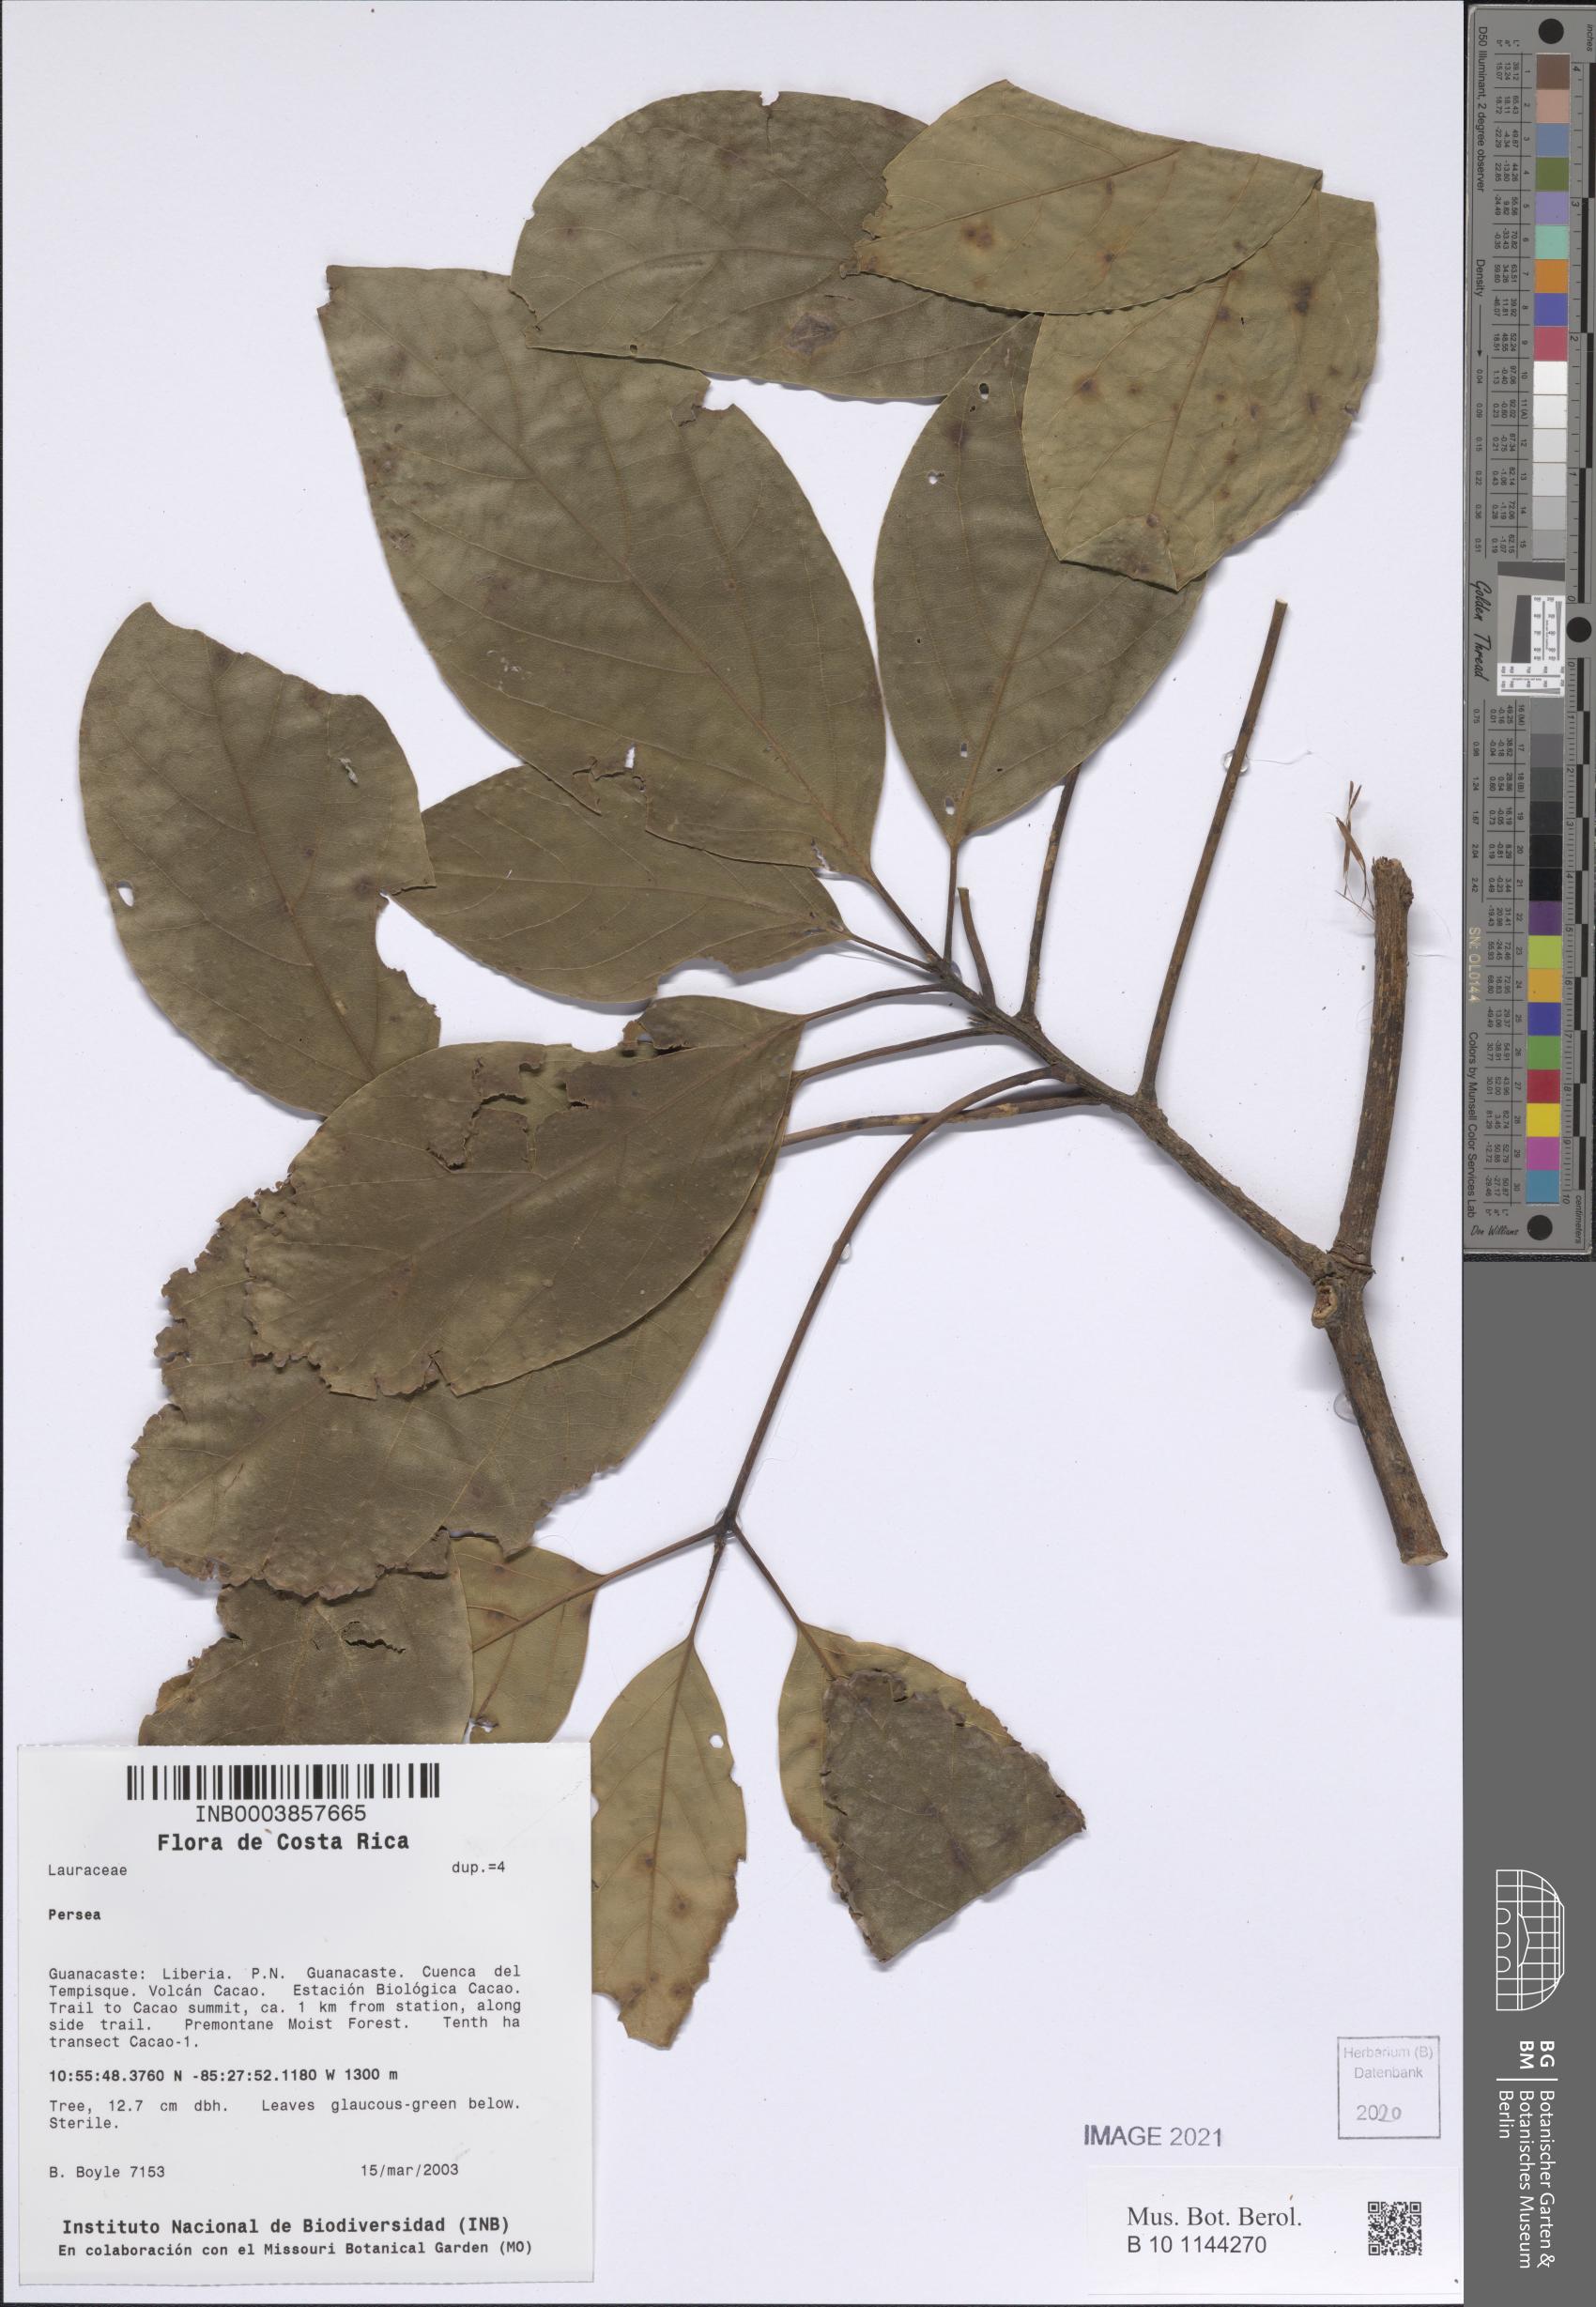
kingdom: Plantae
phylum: Tracheophyta
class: Magnoliopsida
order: Laurales
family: Lauraceae
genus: Persea
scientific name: Persea
